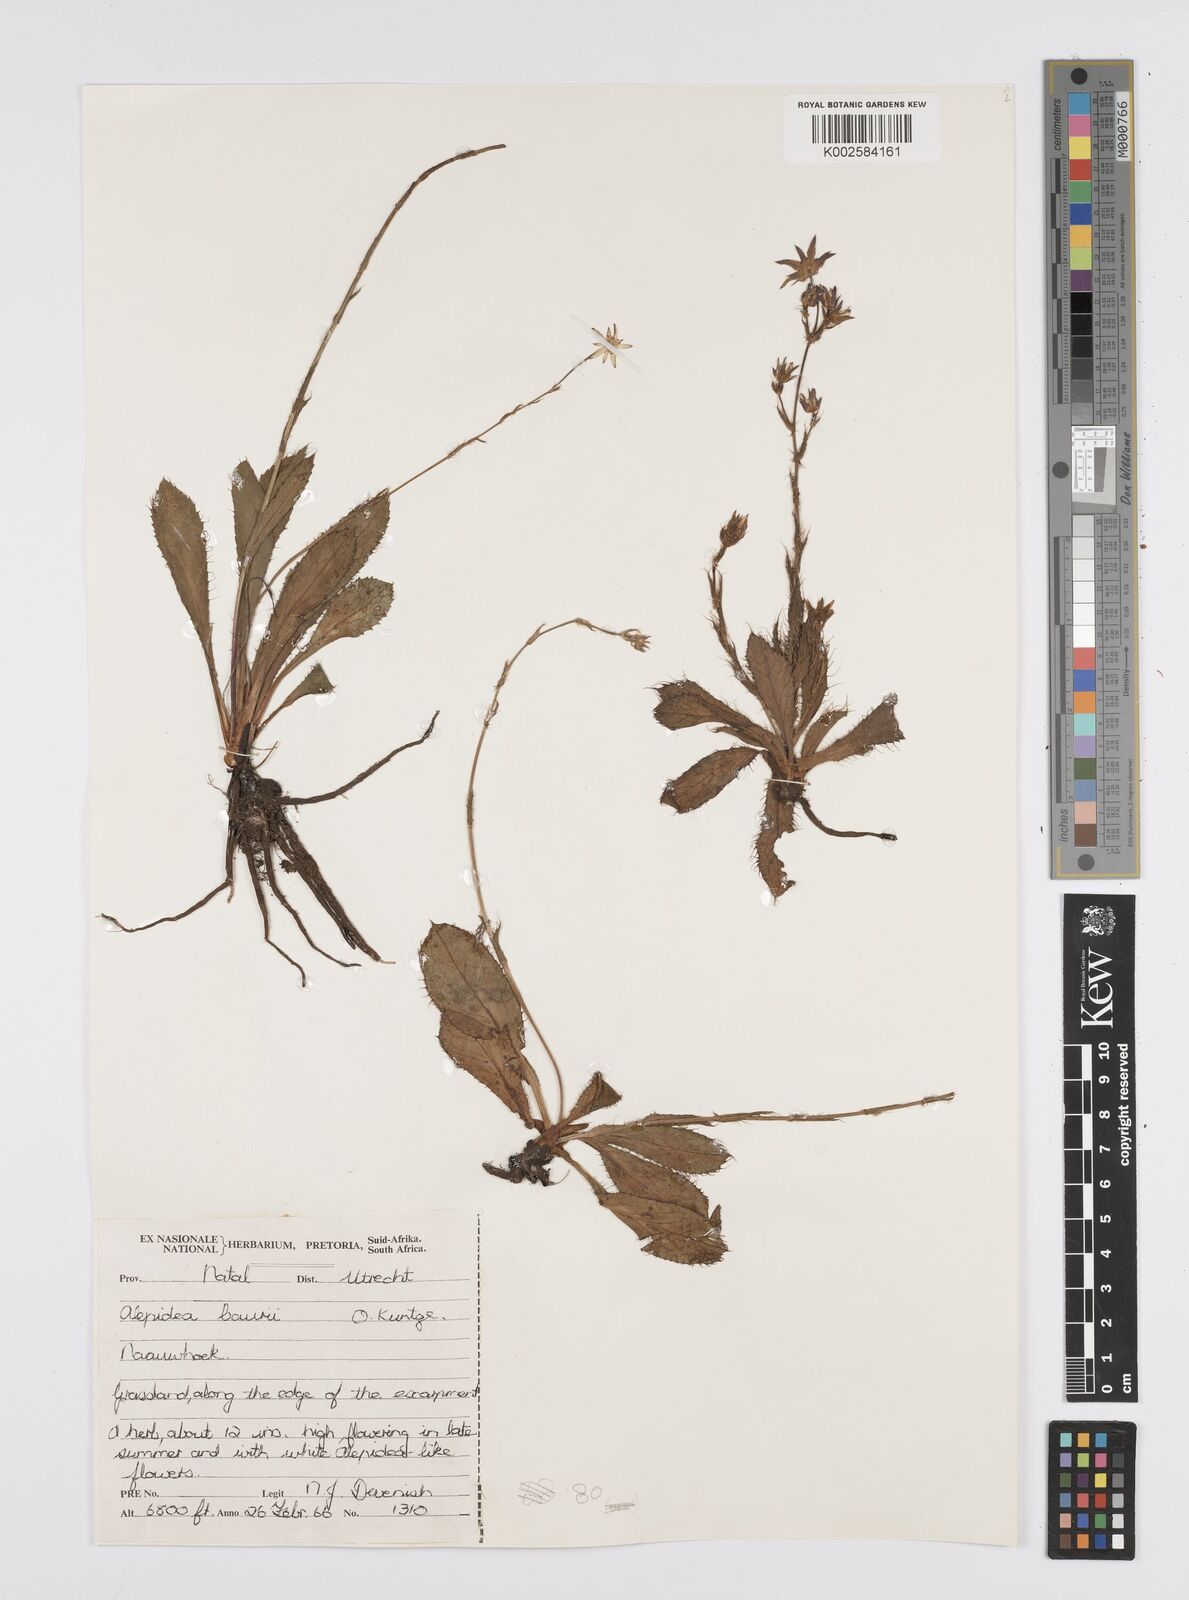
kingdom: Plantae
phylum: Tracheophyta
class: Magnoliopsida
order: Apiales
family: Apiaceae
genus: Alepidea
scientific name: Alepidea natalensis
